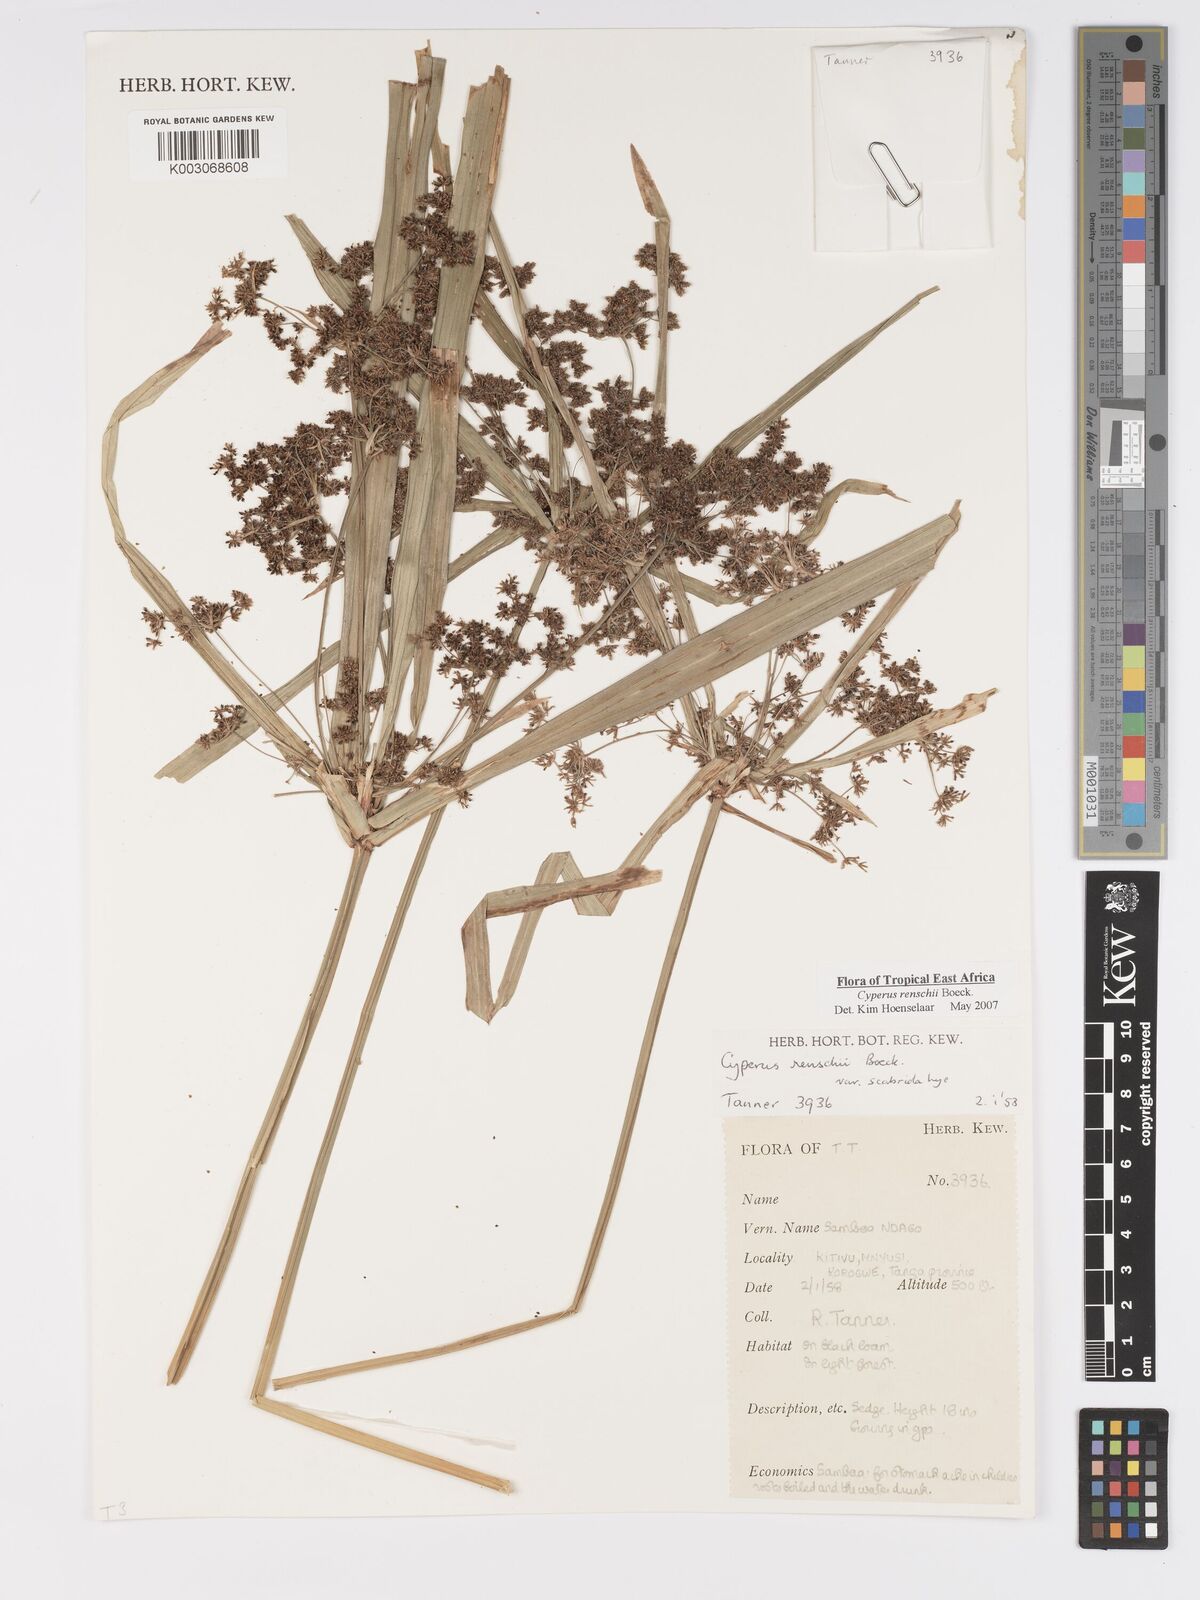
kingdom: Plantae
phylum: Tracheophyta
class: Liliopsida
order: Poales
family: Cyperaceae
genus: Cyperus
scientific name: Cyperus renschii
